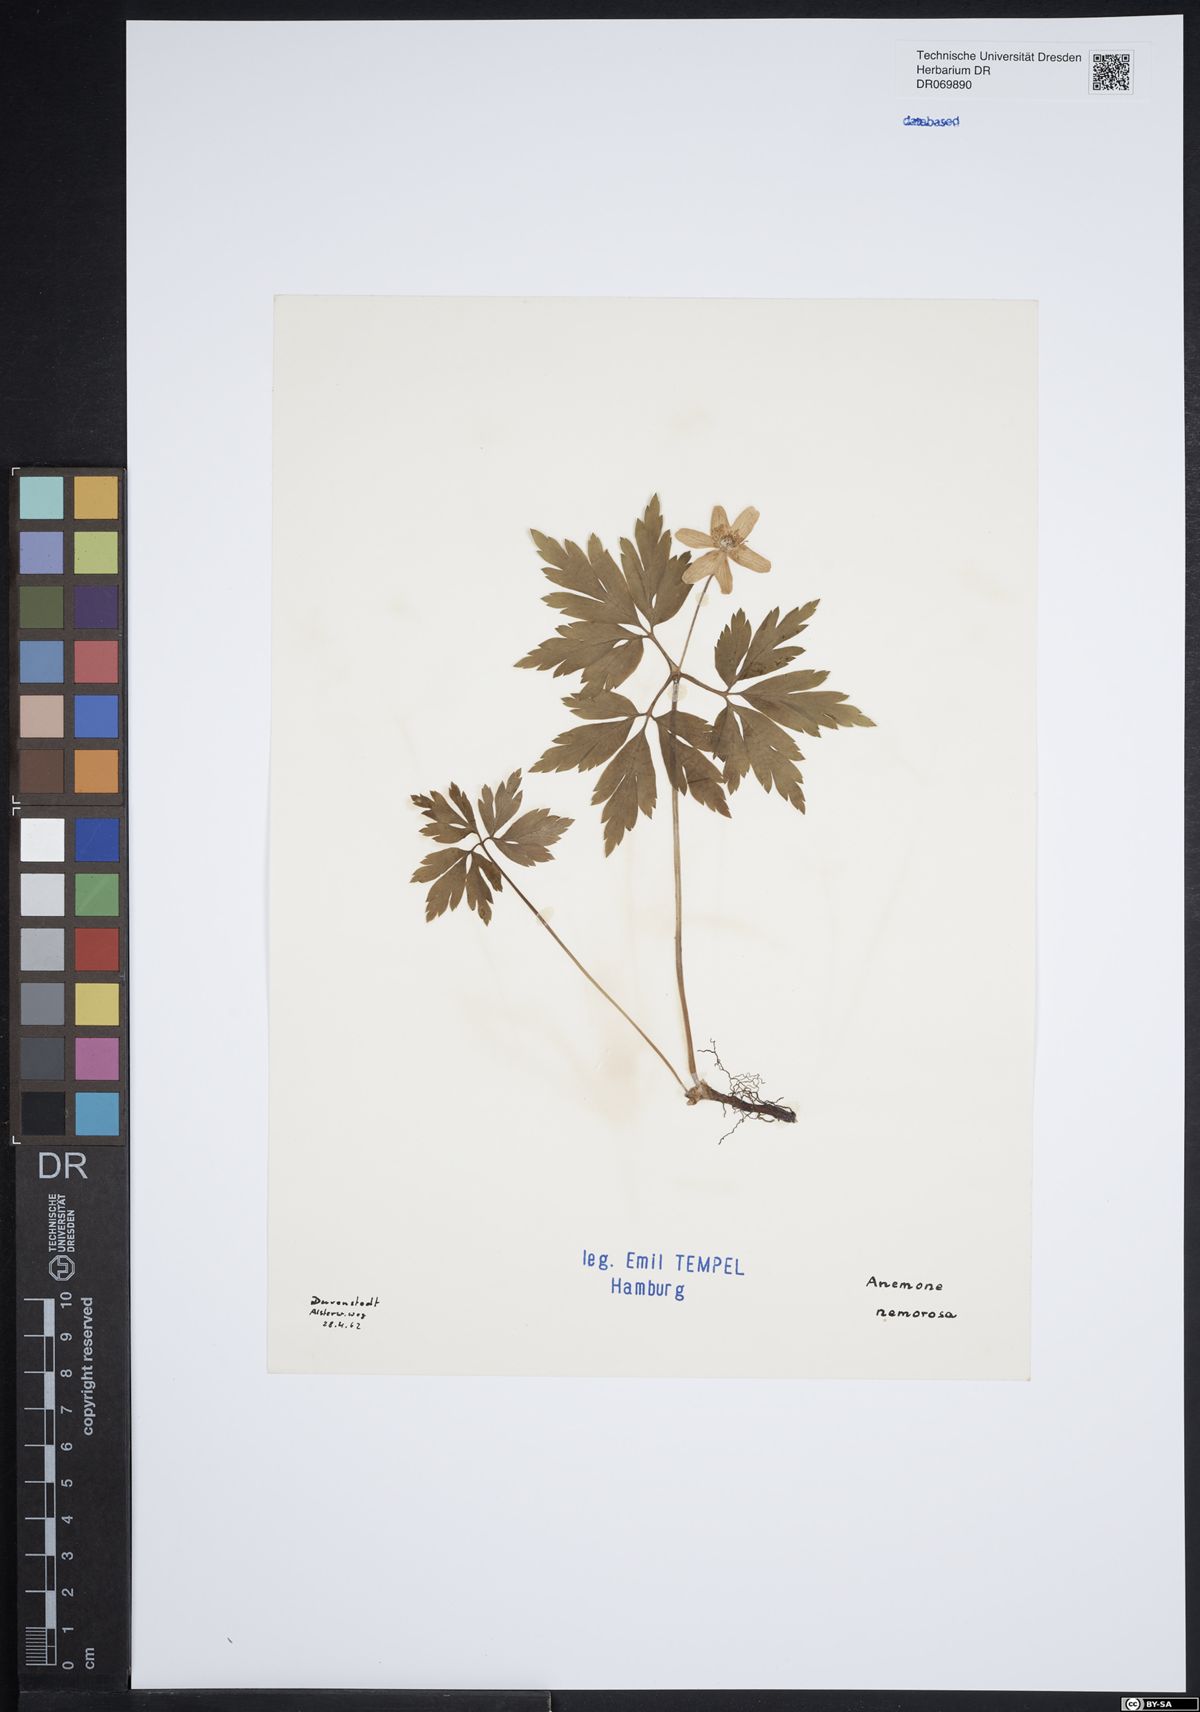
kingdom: Plantae
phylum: Tracheophyta
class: Magnoliopsida
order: Ranunculales
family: Ranunculaceae
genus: Anemone
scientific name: Anemone nemorosa
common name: Wood anemone
